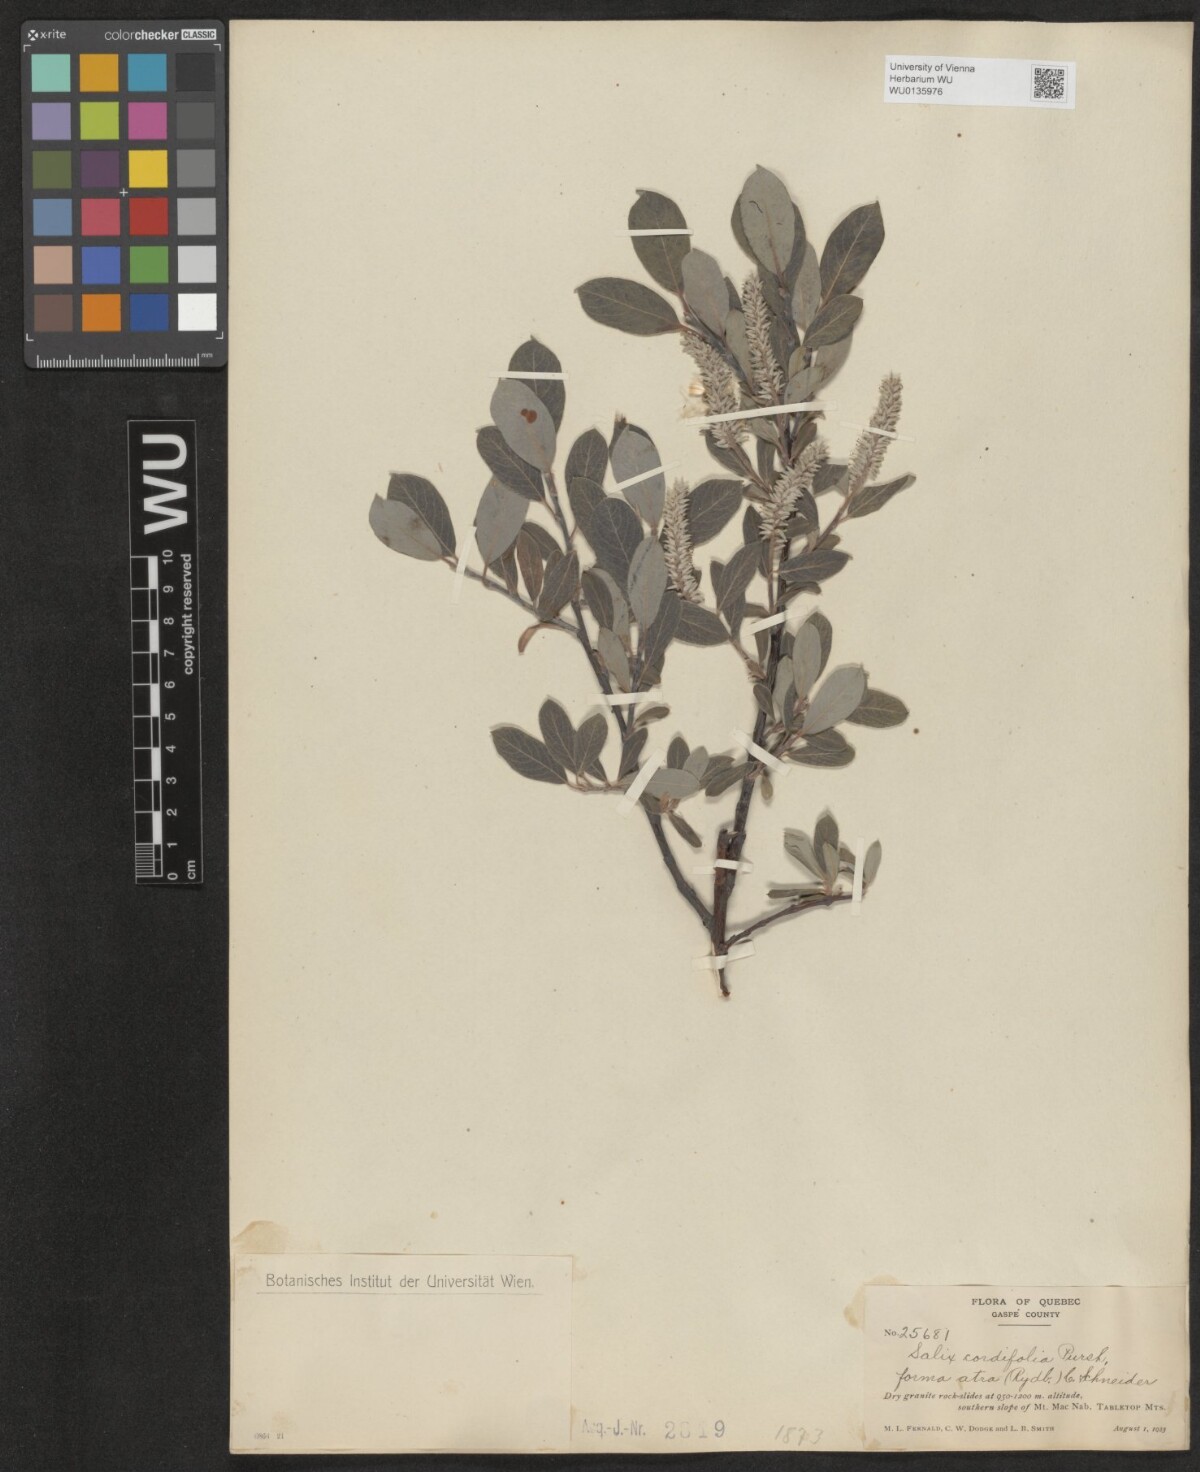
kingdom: Plantae
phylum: Tracheophyta
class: Magnoliopsida
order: Malpighiales
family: Salicaceae
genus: Salix
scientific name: Salix
